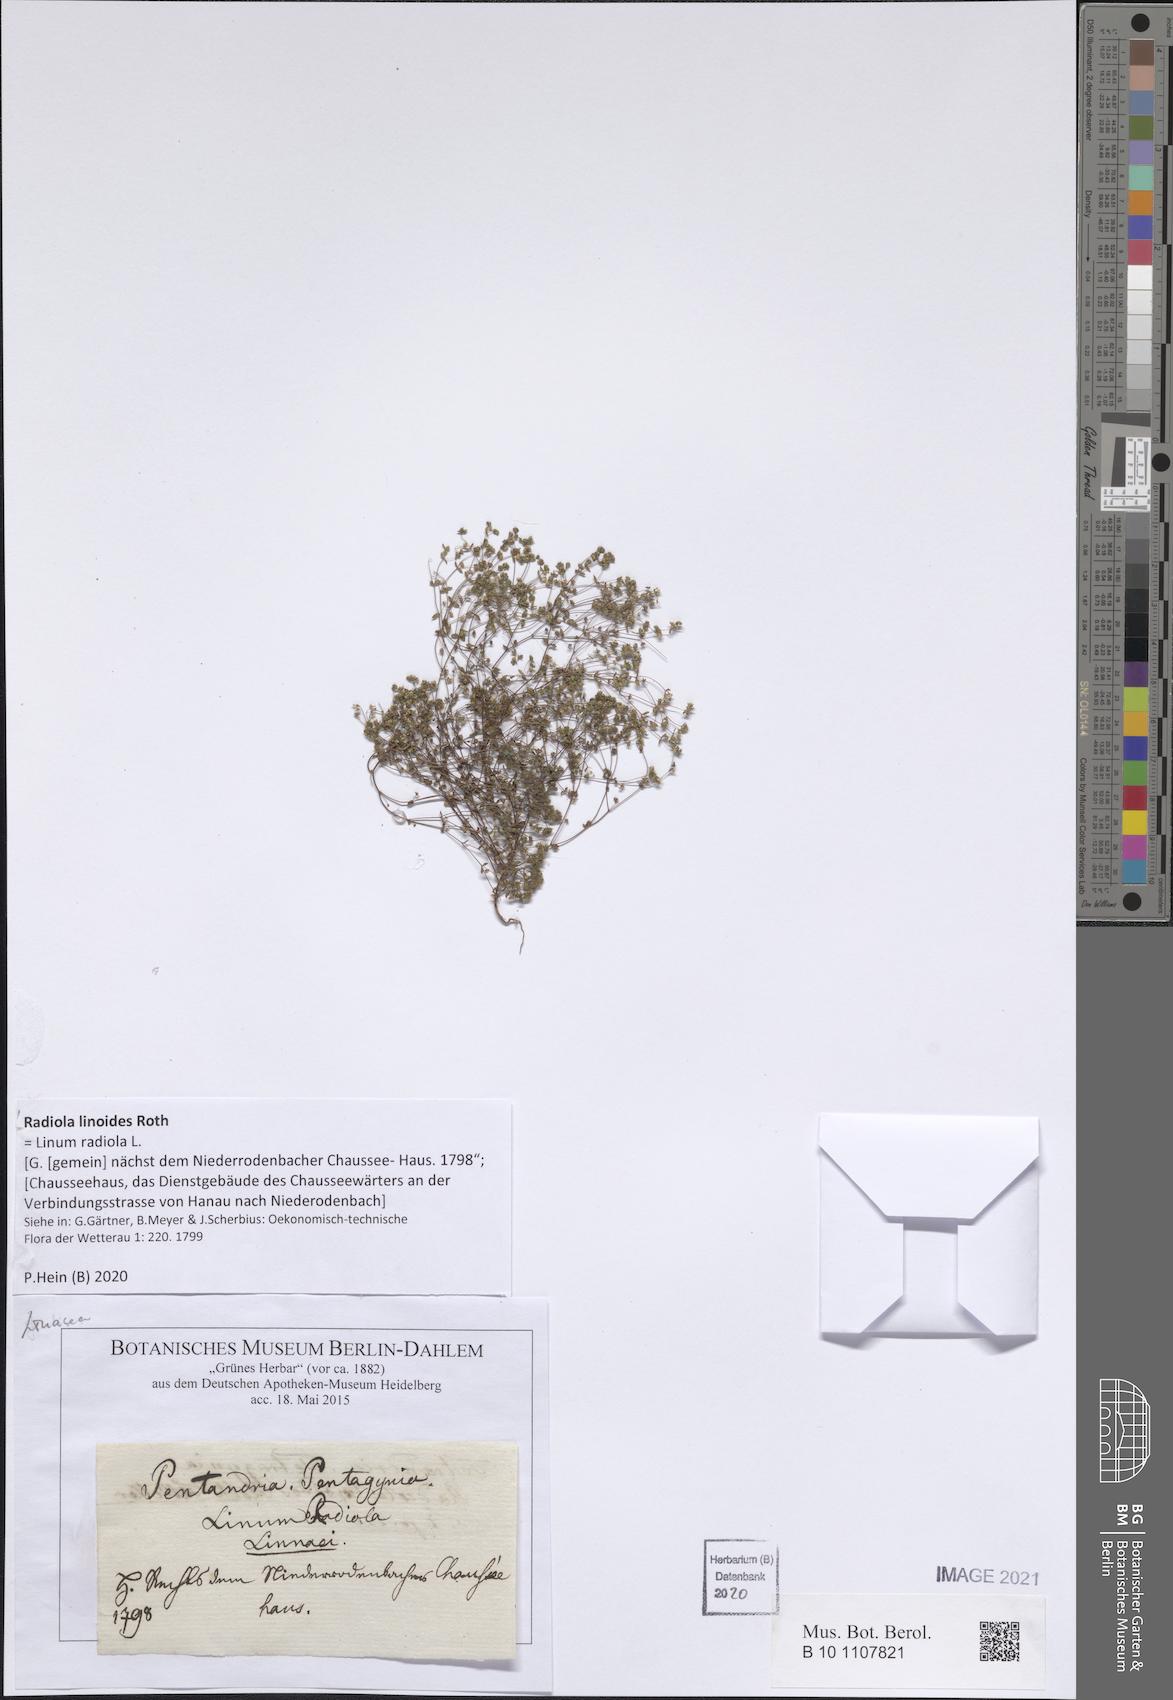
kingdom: Plantae
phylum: Tracheophyta
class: Magnoliopsida
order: Malpighiales
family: Linaceae
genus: Radiola
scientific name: Radiola linoides
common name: Allseed
